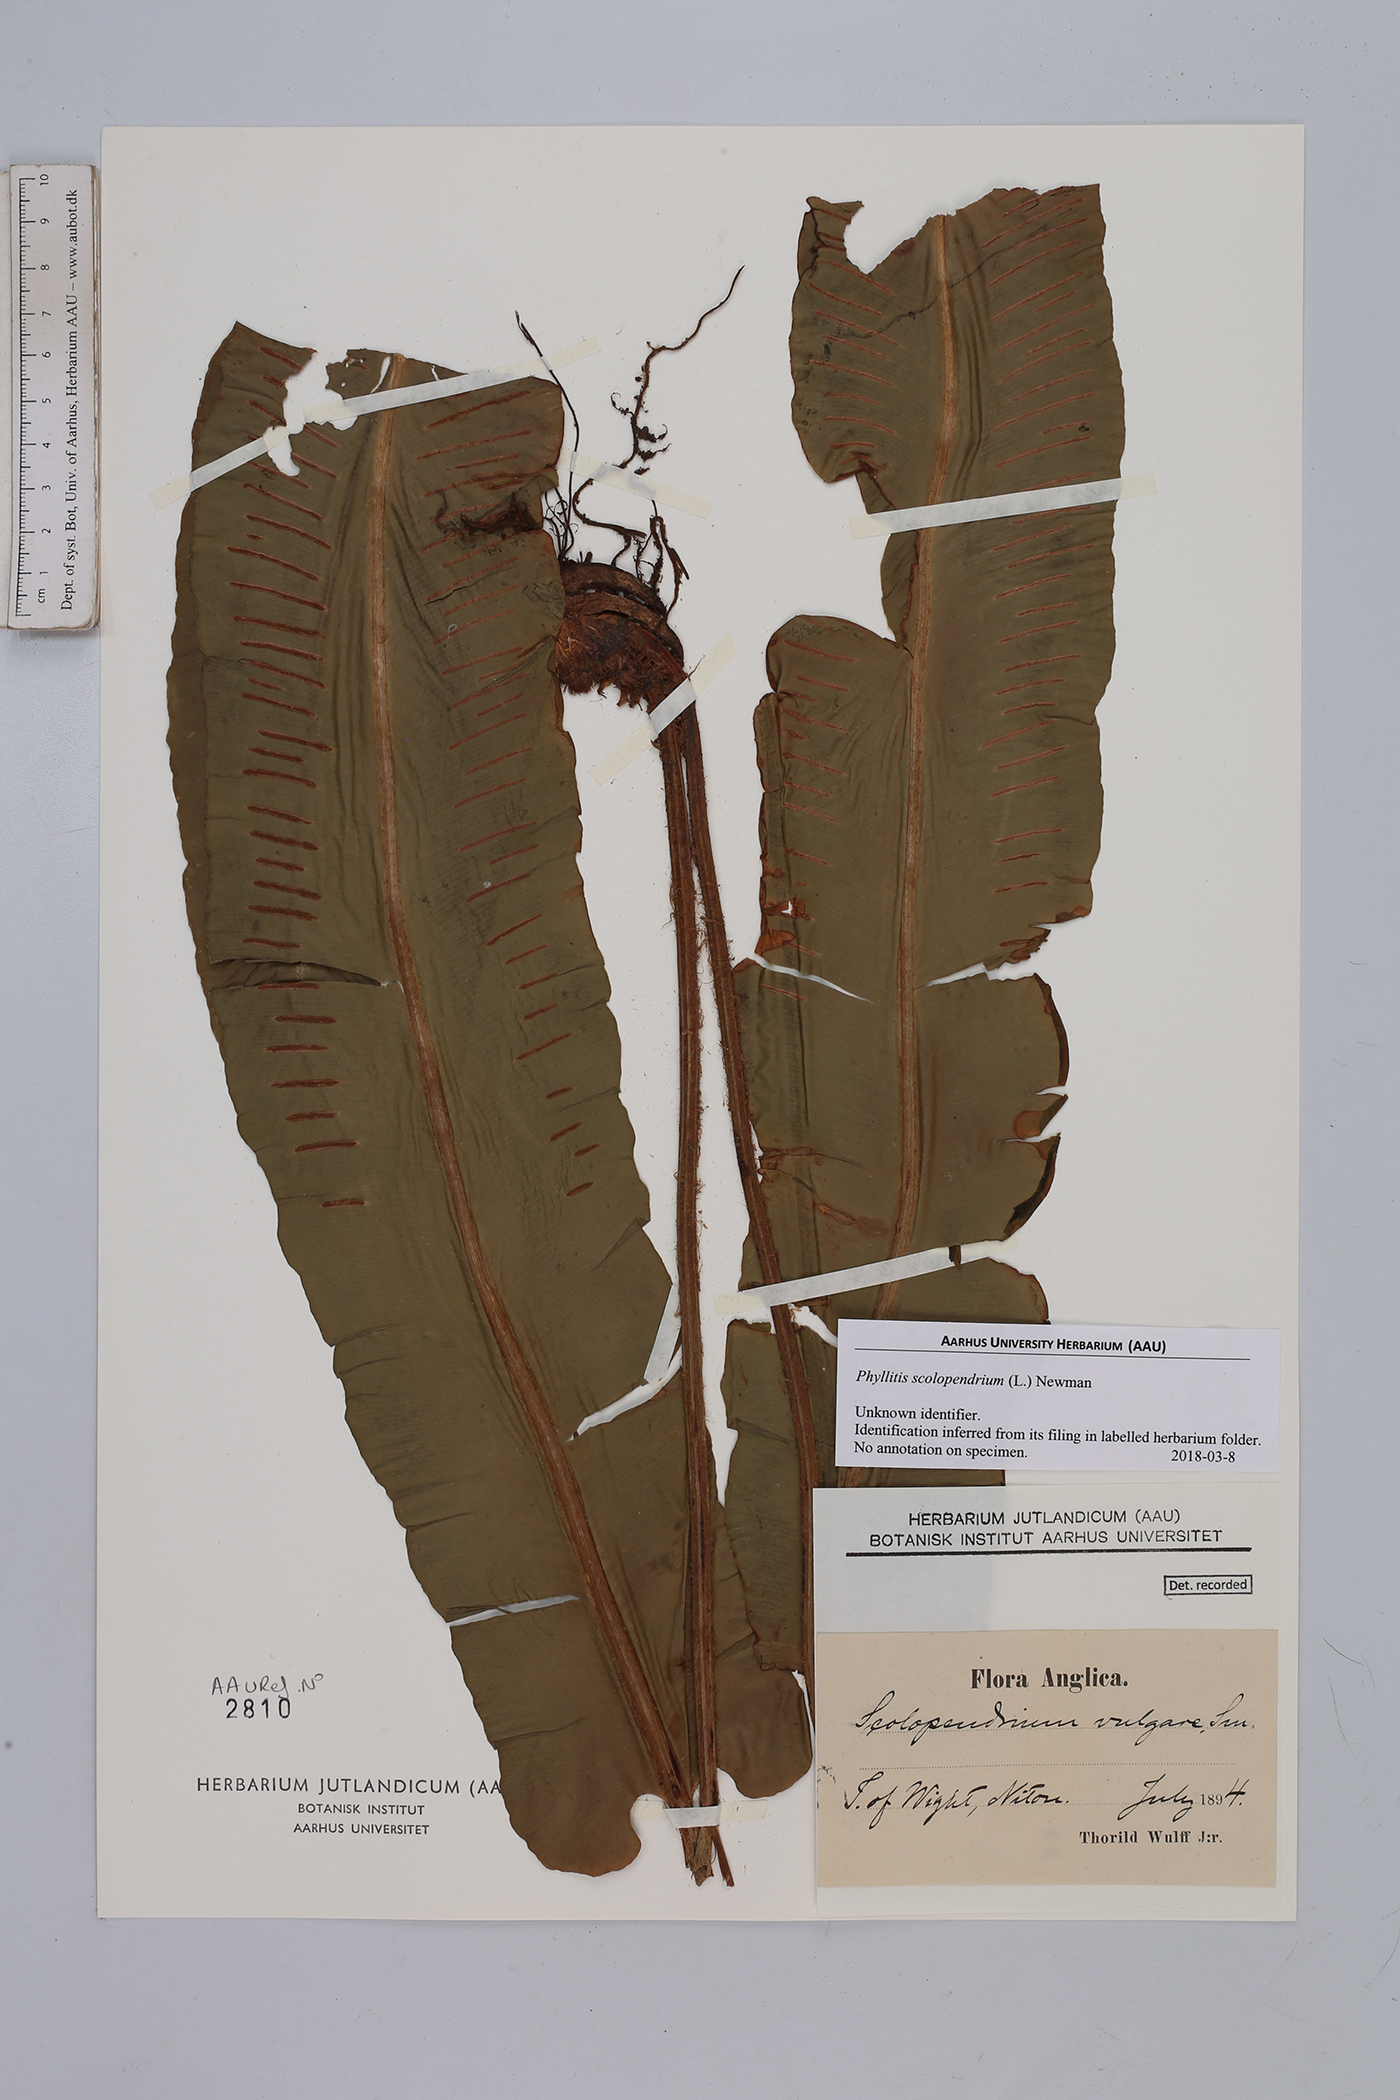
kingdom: Plantae
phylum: Tracheophyta
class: Polypodiopsida
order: Polypodiales
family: Aspleniaceae
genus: Asplenium
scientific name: Asplenium scolopendrium
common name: Hart's-tongue fern
